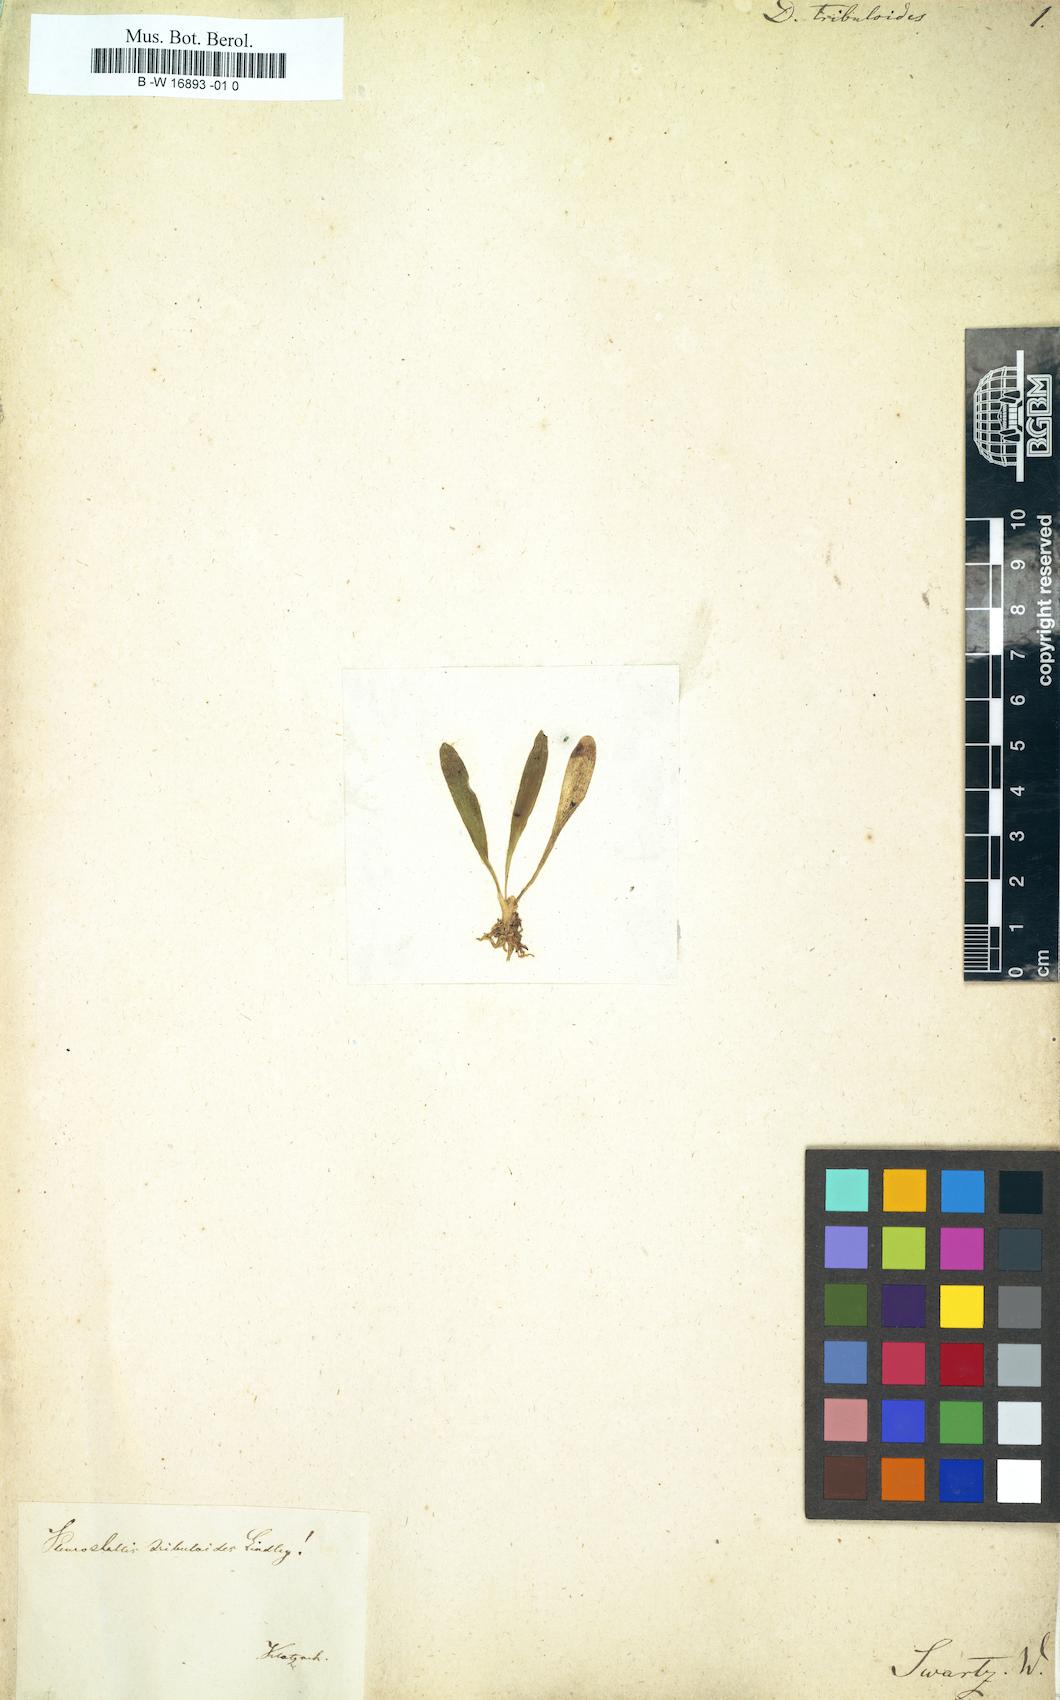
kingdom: Plantae
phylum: Tracheophyta
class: Liliopsida
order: Asparagales
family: Orchidaceae
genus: Specklinia
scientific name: Specklinia tribuloides
